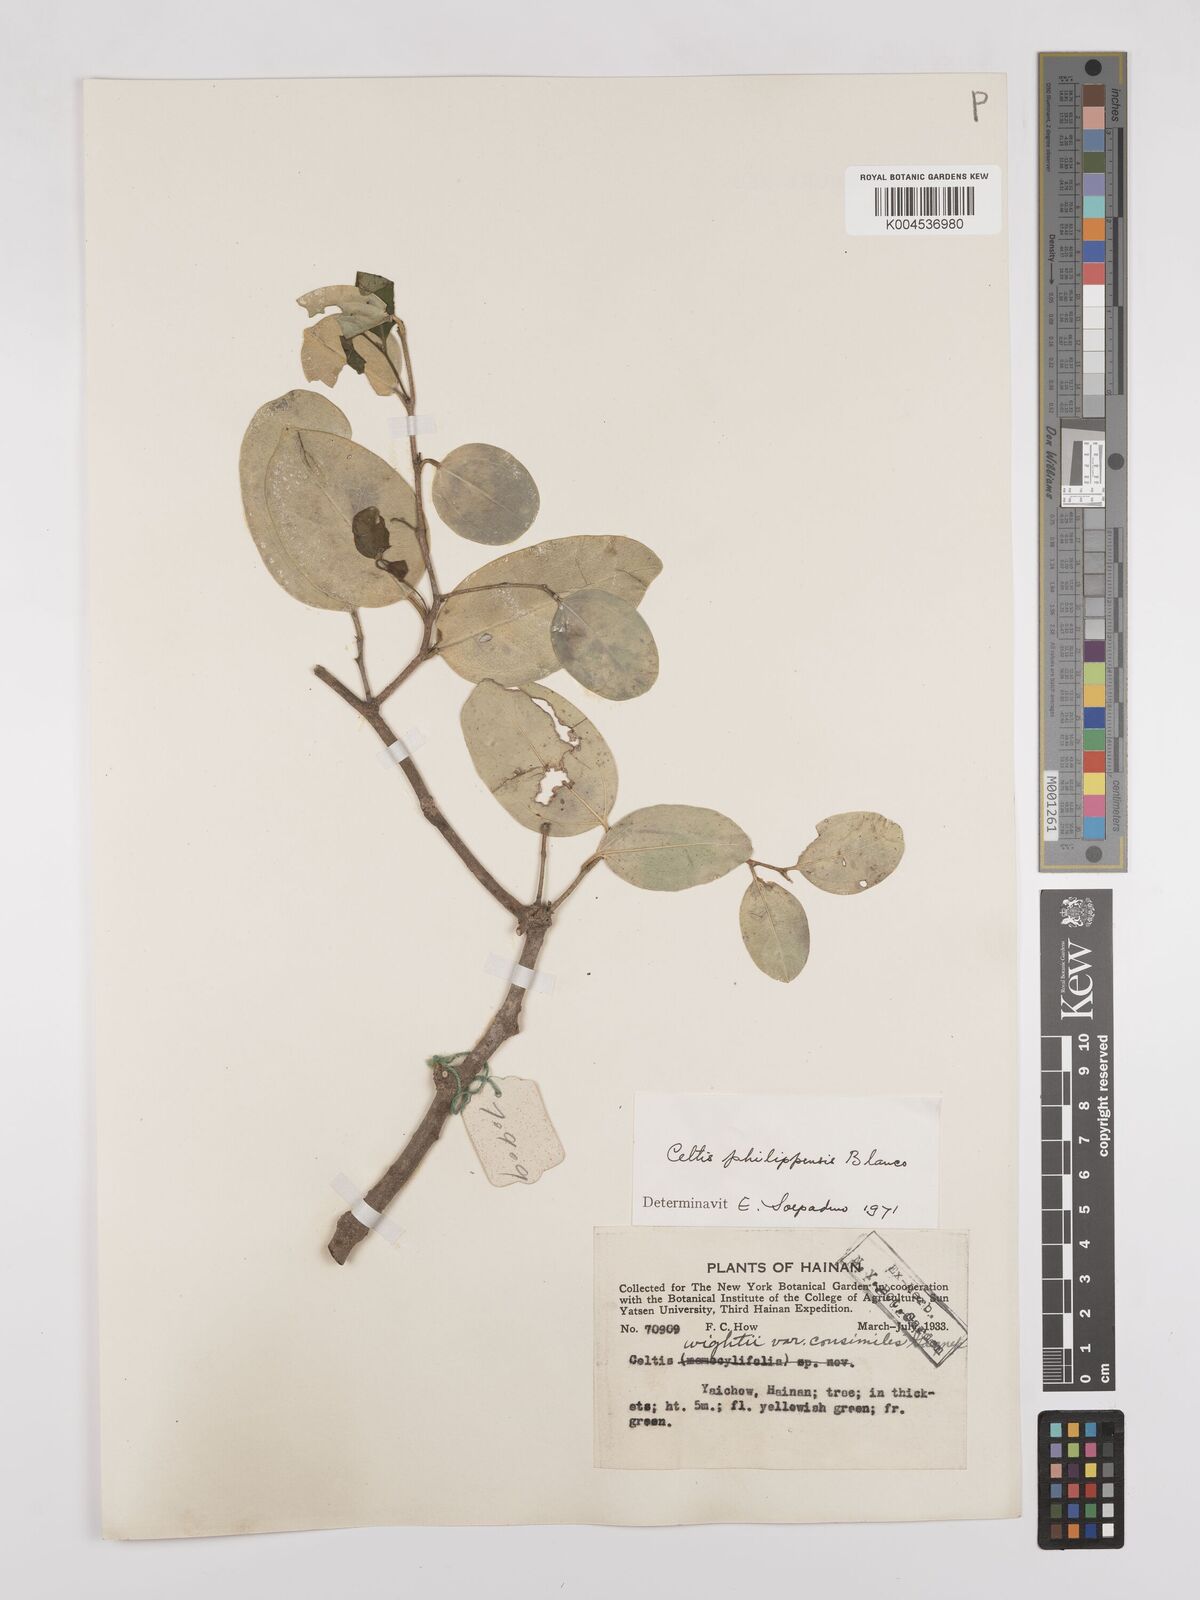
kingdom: Plantae
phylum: Tracheophyta
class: Magnoliopsida
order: Rosales
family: Cannabaceae
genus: Celtis
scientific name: Celtis philippensis
